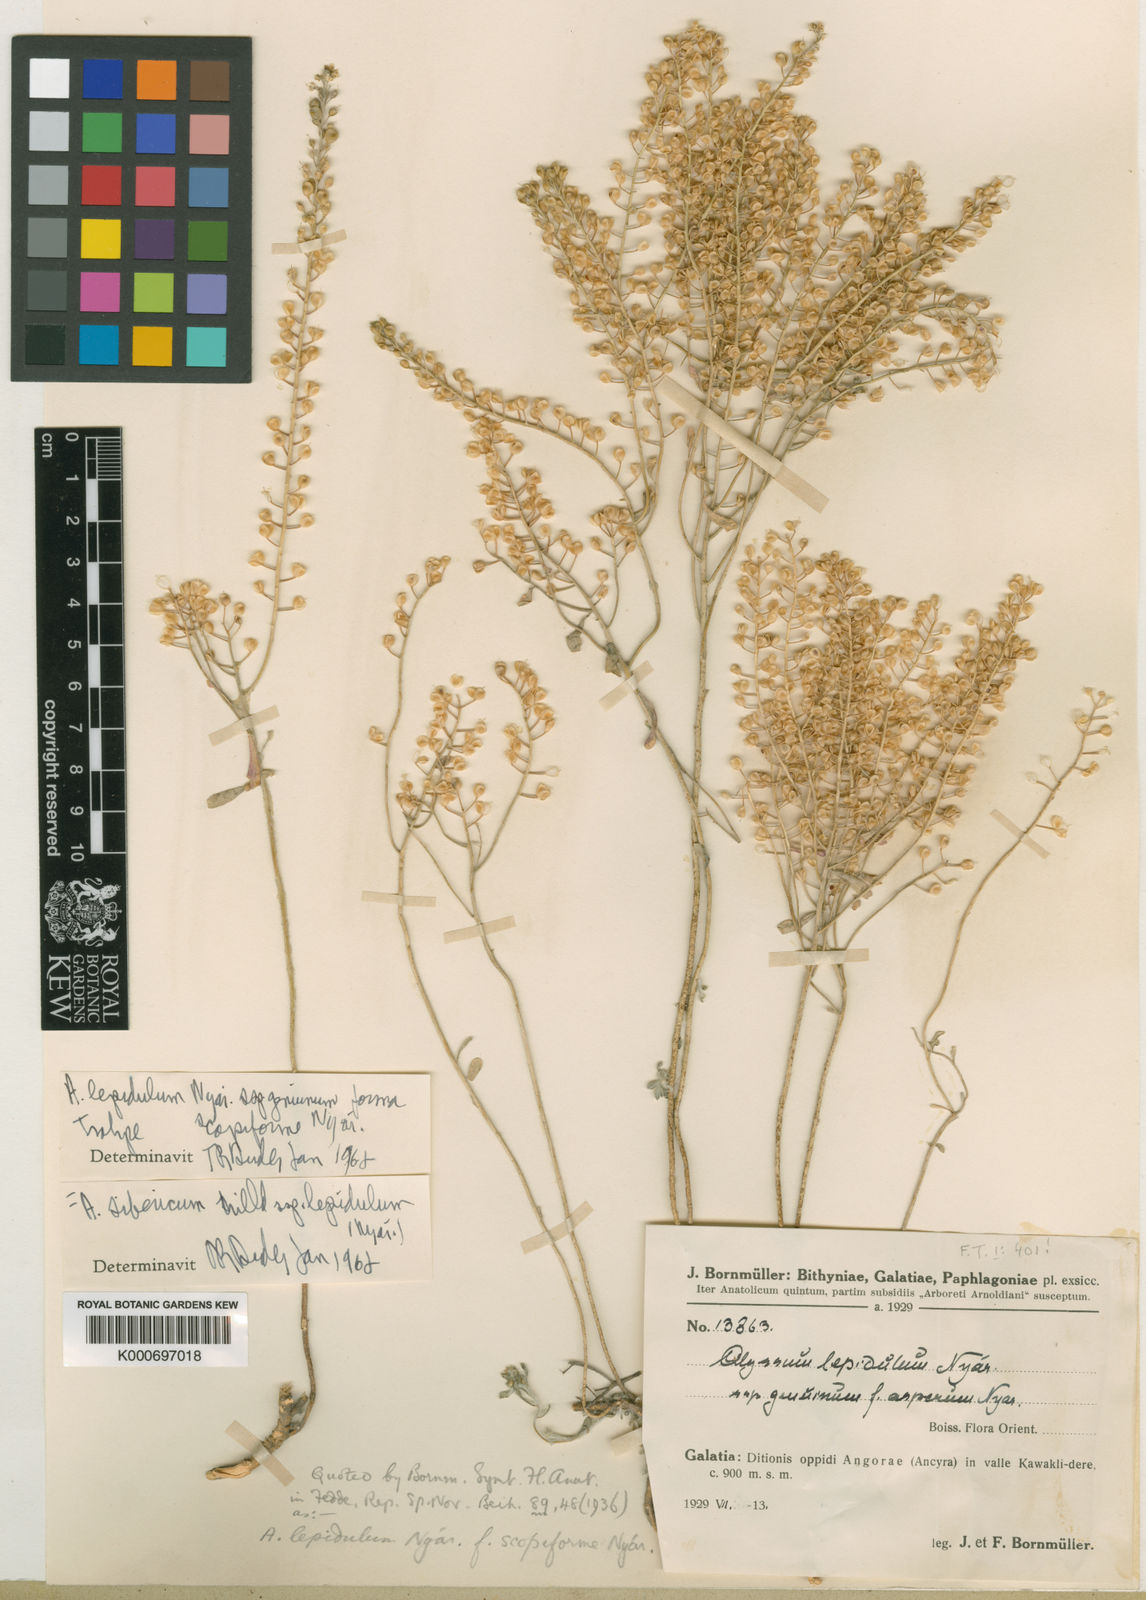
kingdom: Plantae
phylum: Tracheophyta
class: Magnoliopsida
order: Brassicales
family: Brassicaceae
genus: Odontarrhena
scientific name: Odontarrhena sibirica
